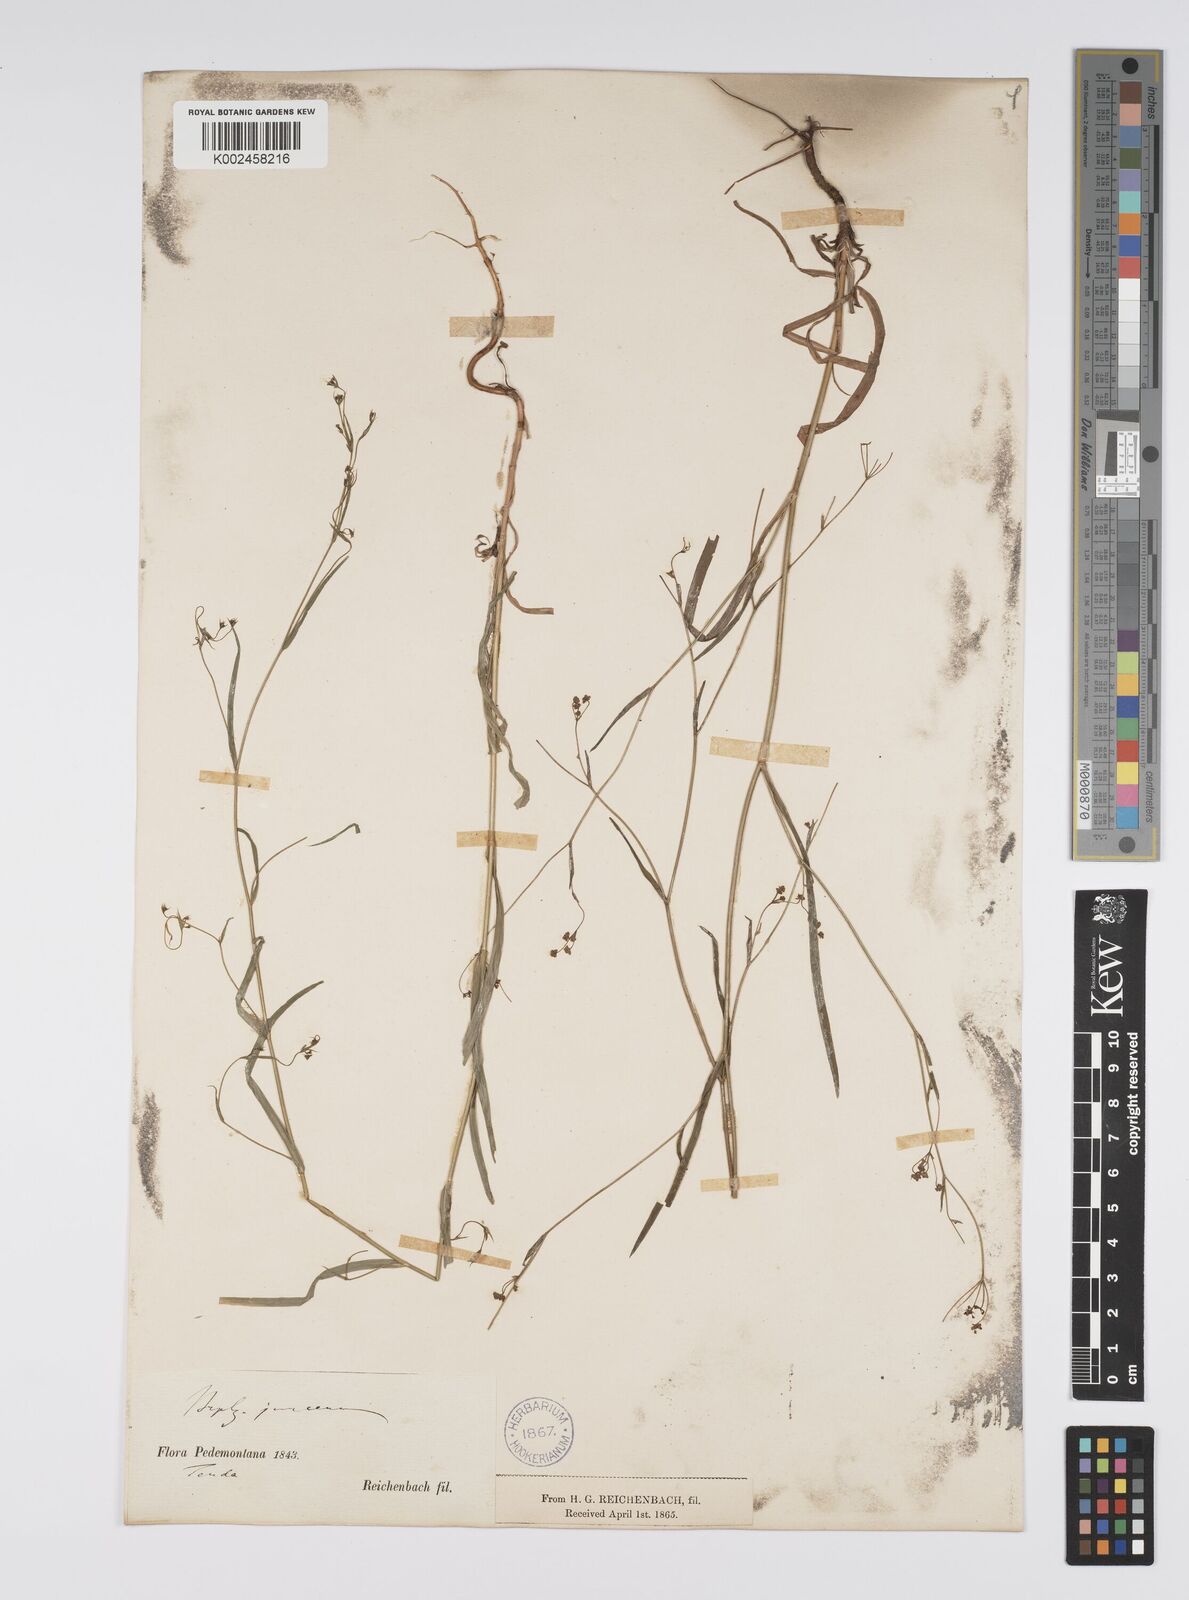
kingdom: Plantae
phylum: Tracheophyta
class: Magnoliopsida
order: Apiales
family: Apiaceae
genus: Bupleurum
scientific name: Bupleurum praealtum
